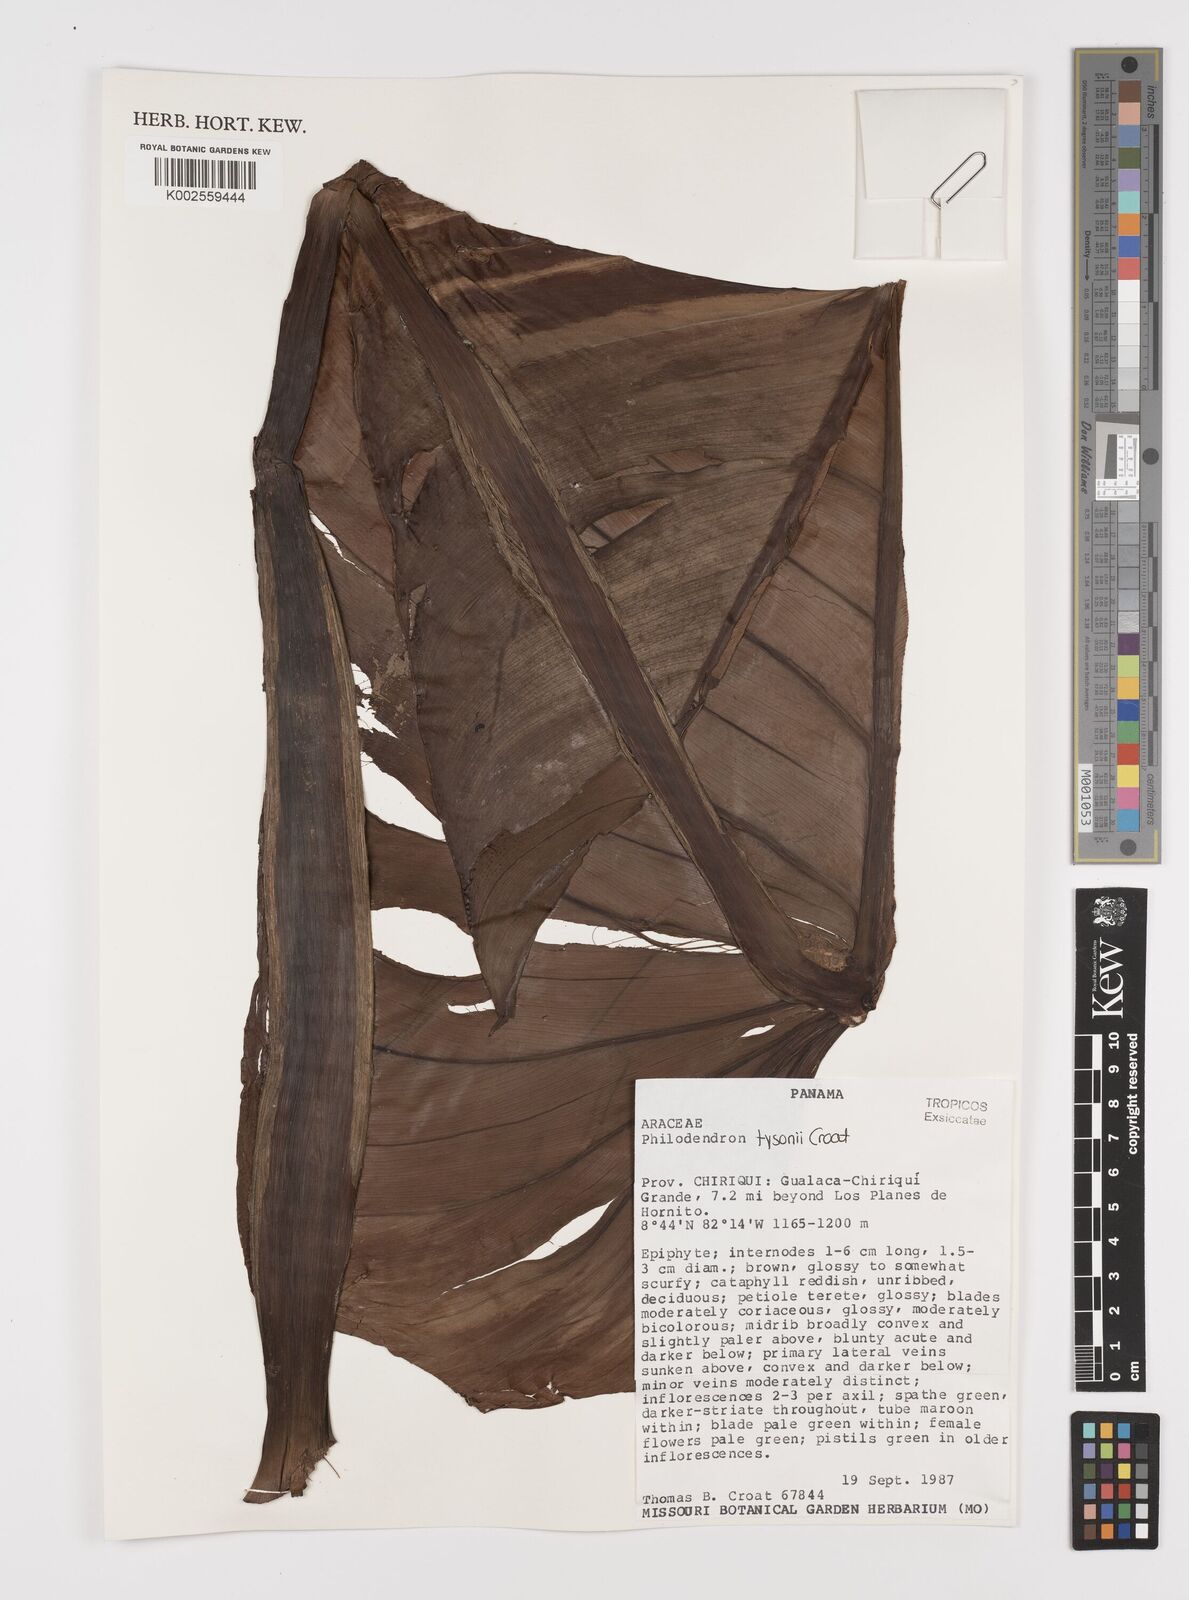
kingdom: Plantae
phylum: Tracheophyta
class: Liliopsida
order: Alismatales
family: Araceae
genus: Philodendron
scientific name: Philodendron tysonii
